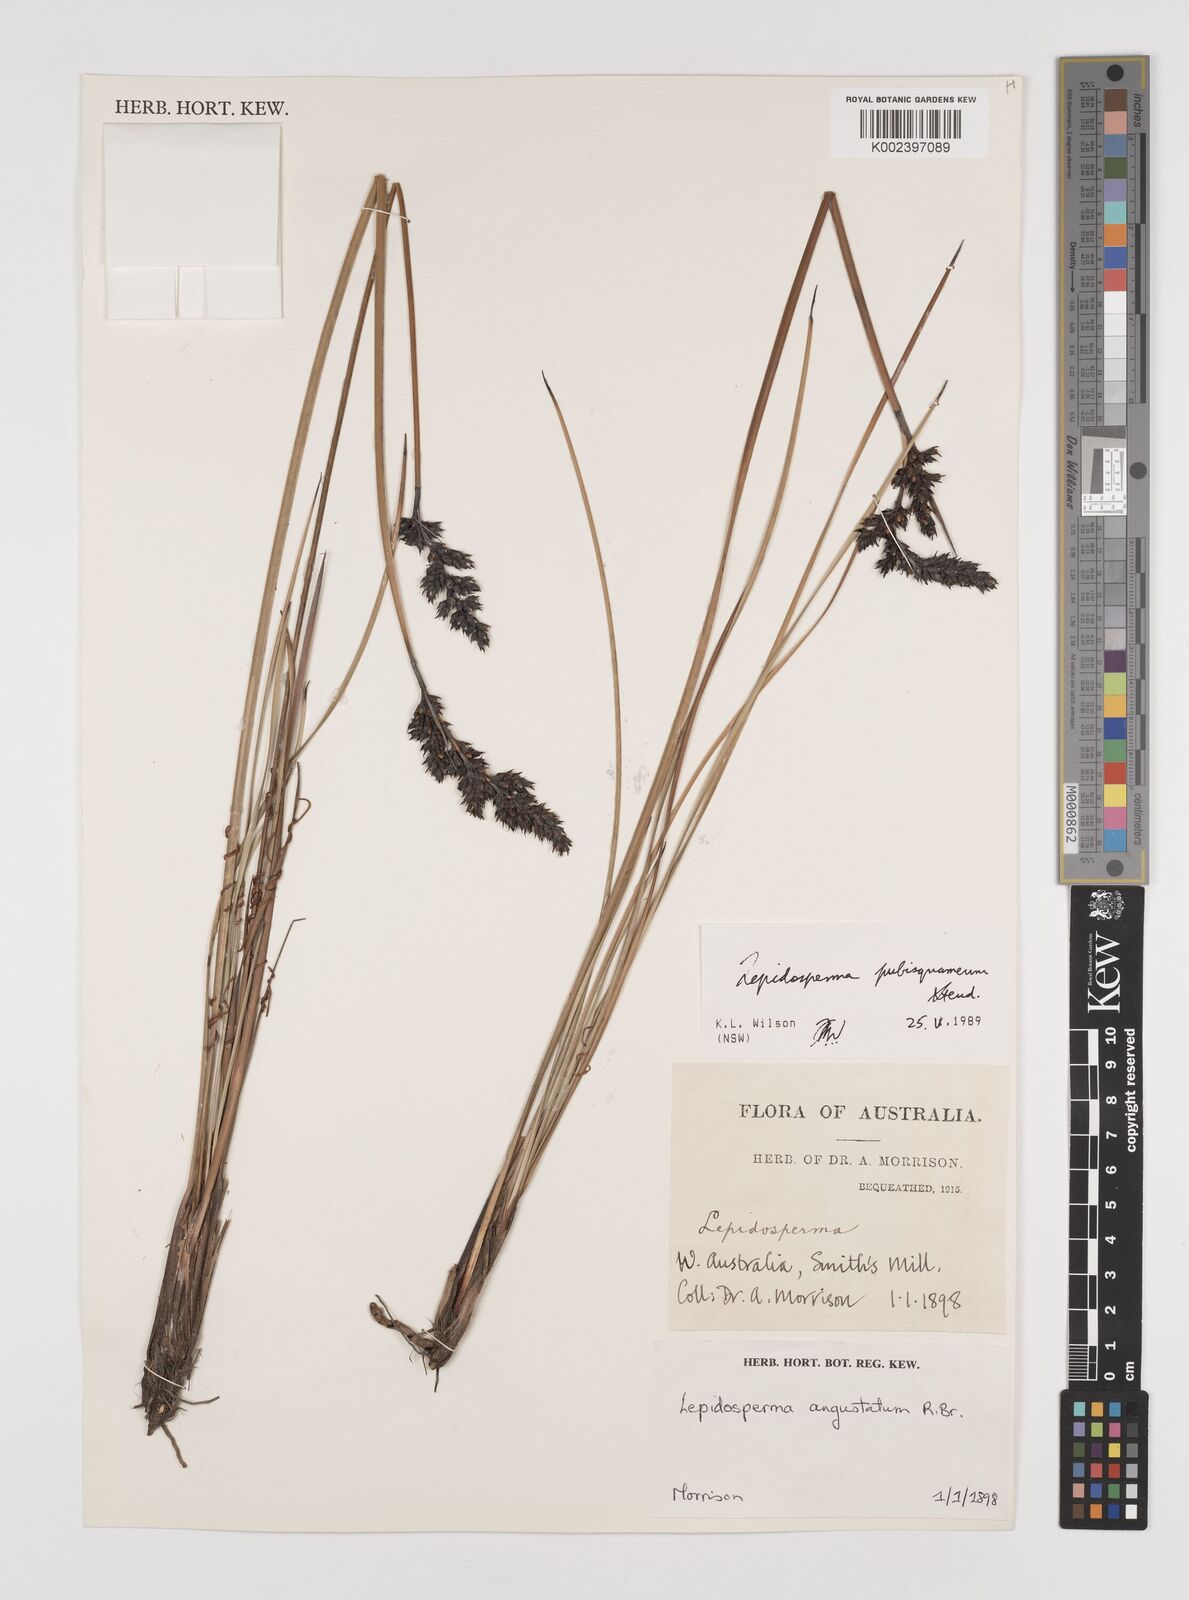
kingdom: Plantae
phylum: Tracheophyta
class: Liliopsida
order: Poales
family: Cyperaceae
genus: Lepidosperma
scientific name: Lepidosperma pubisquameum
